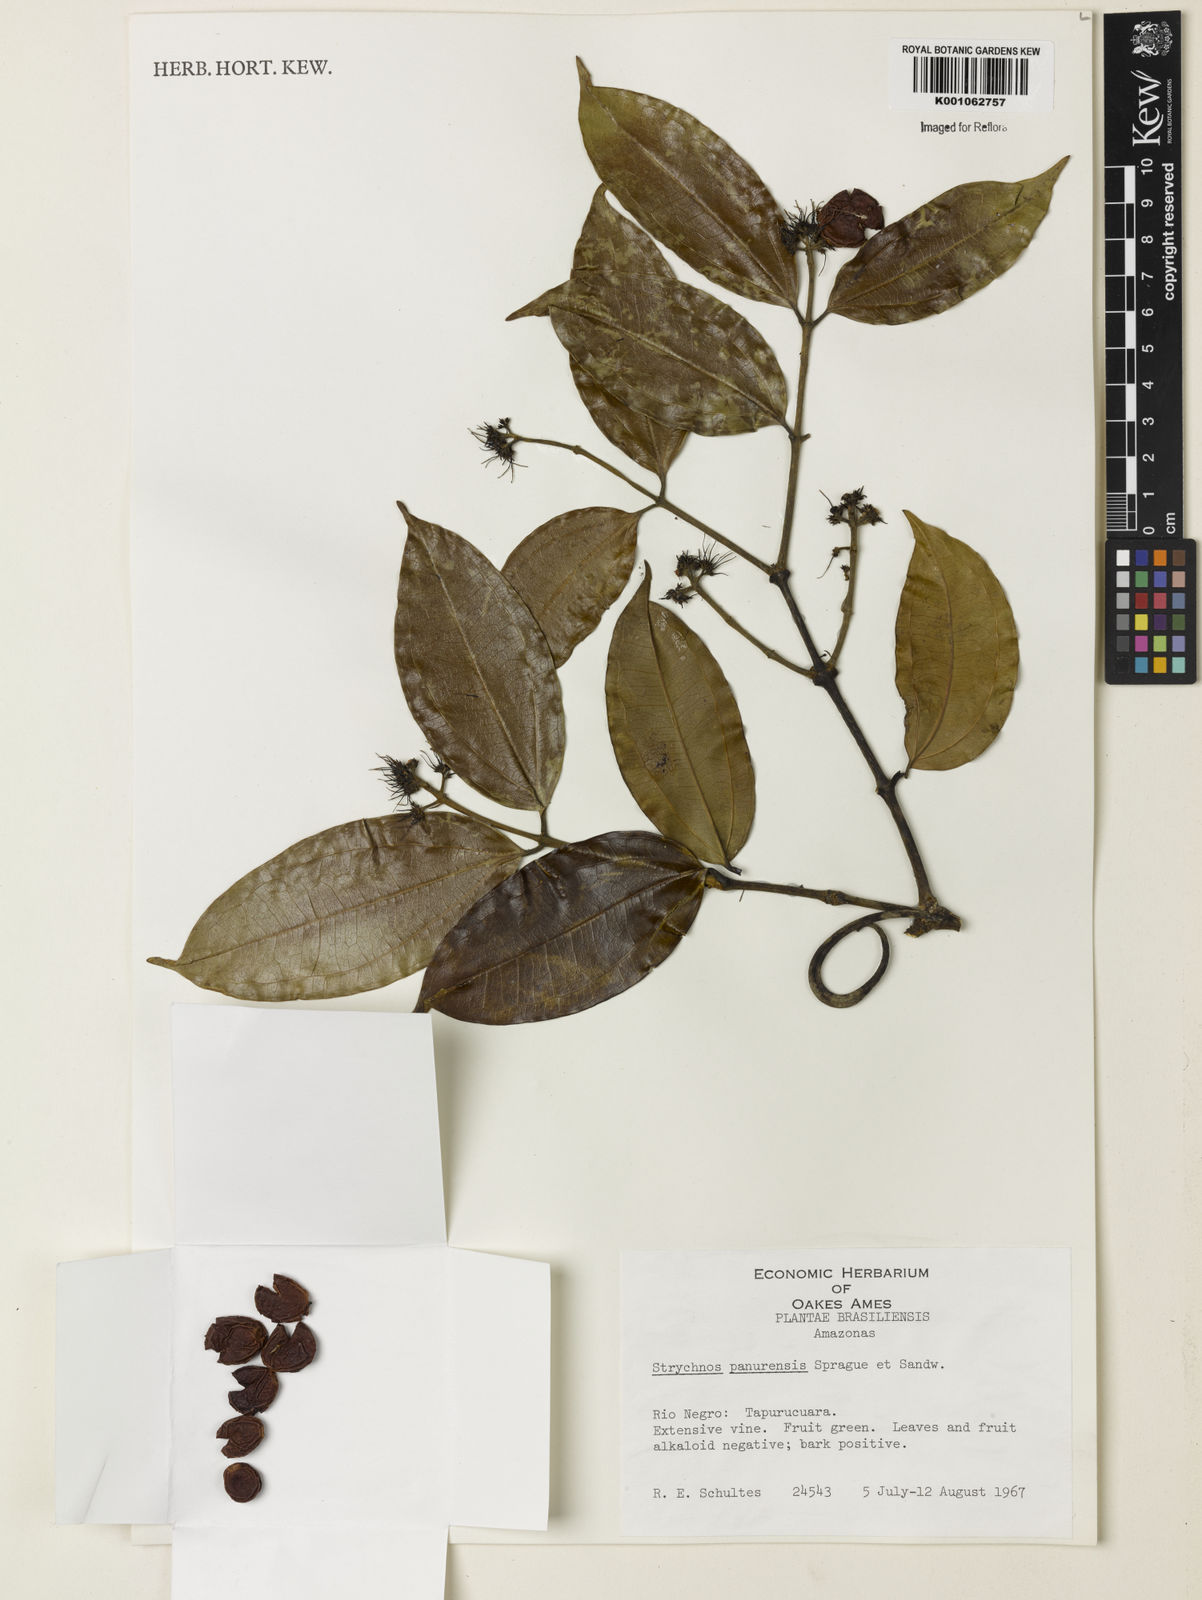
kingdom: Plantae
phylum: Tracheophyta
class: Magnoliopsida
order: Gentianales
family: Loganiaceae
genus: Strychnos
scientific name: Strychnos gubleri
